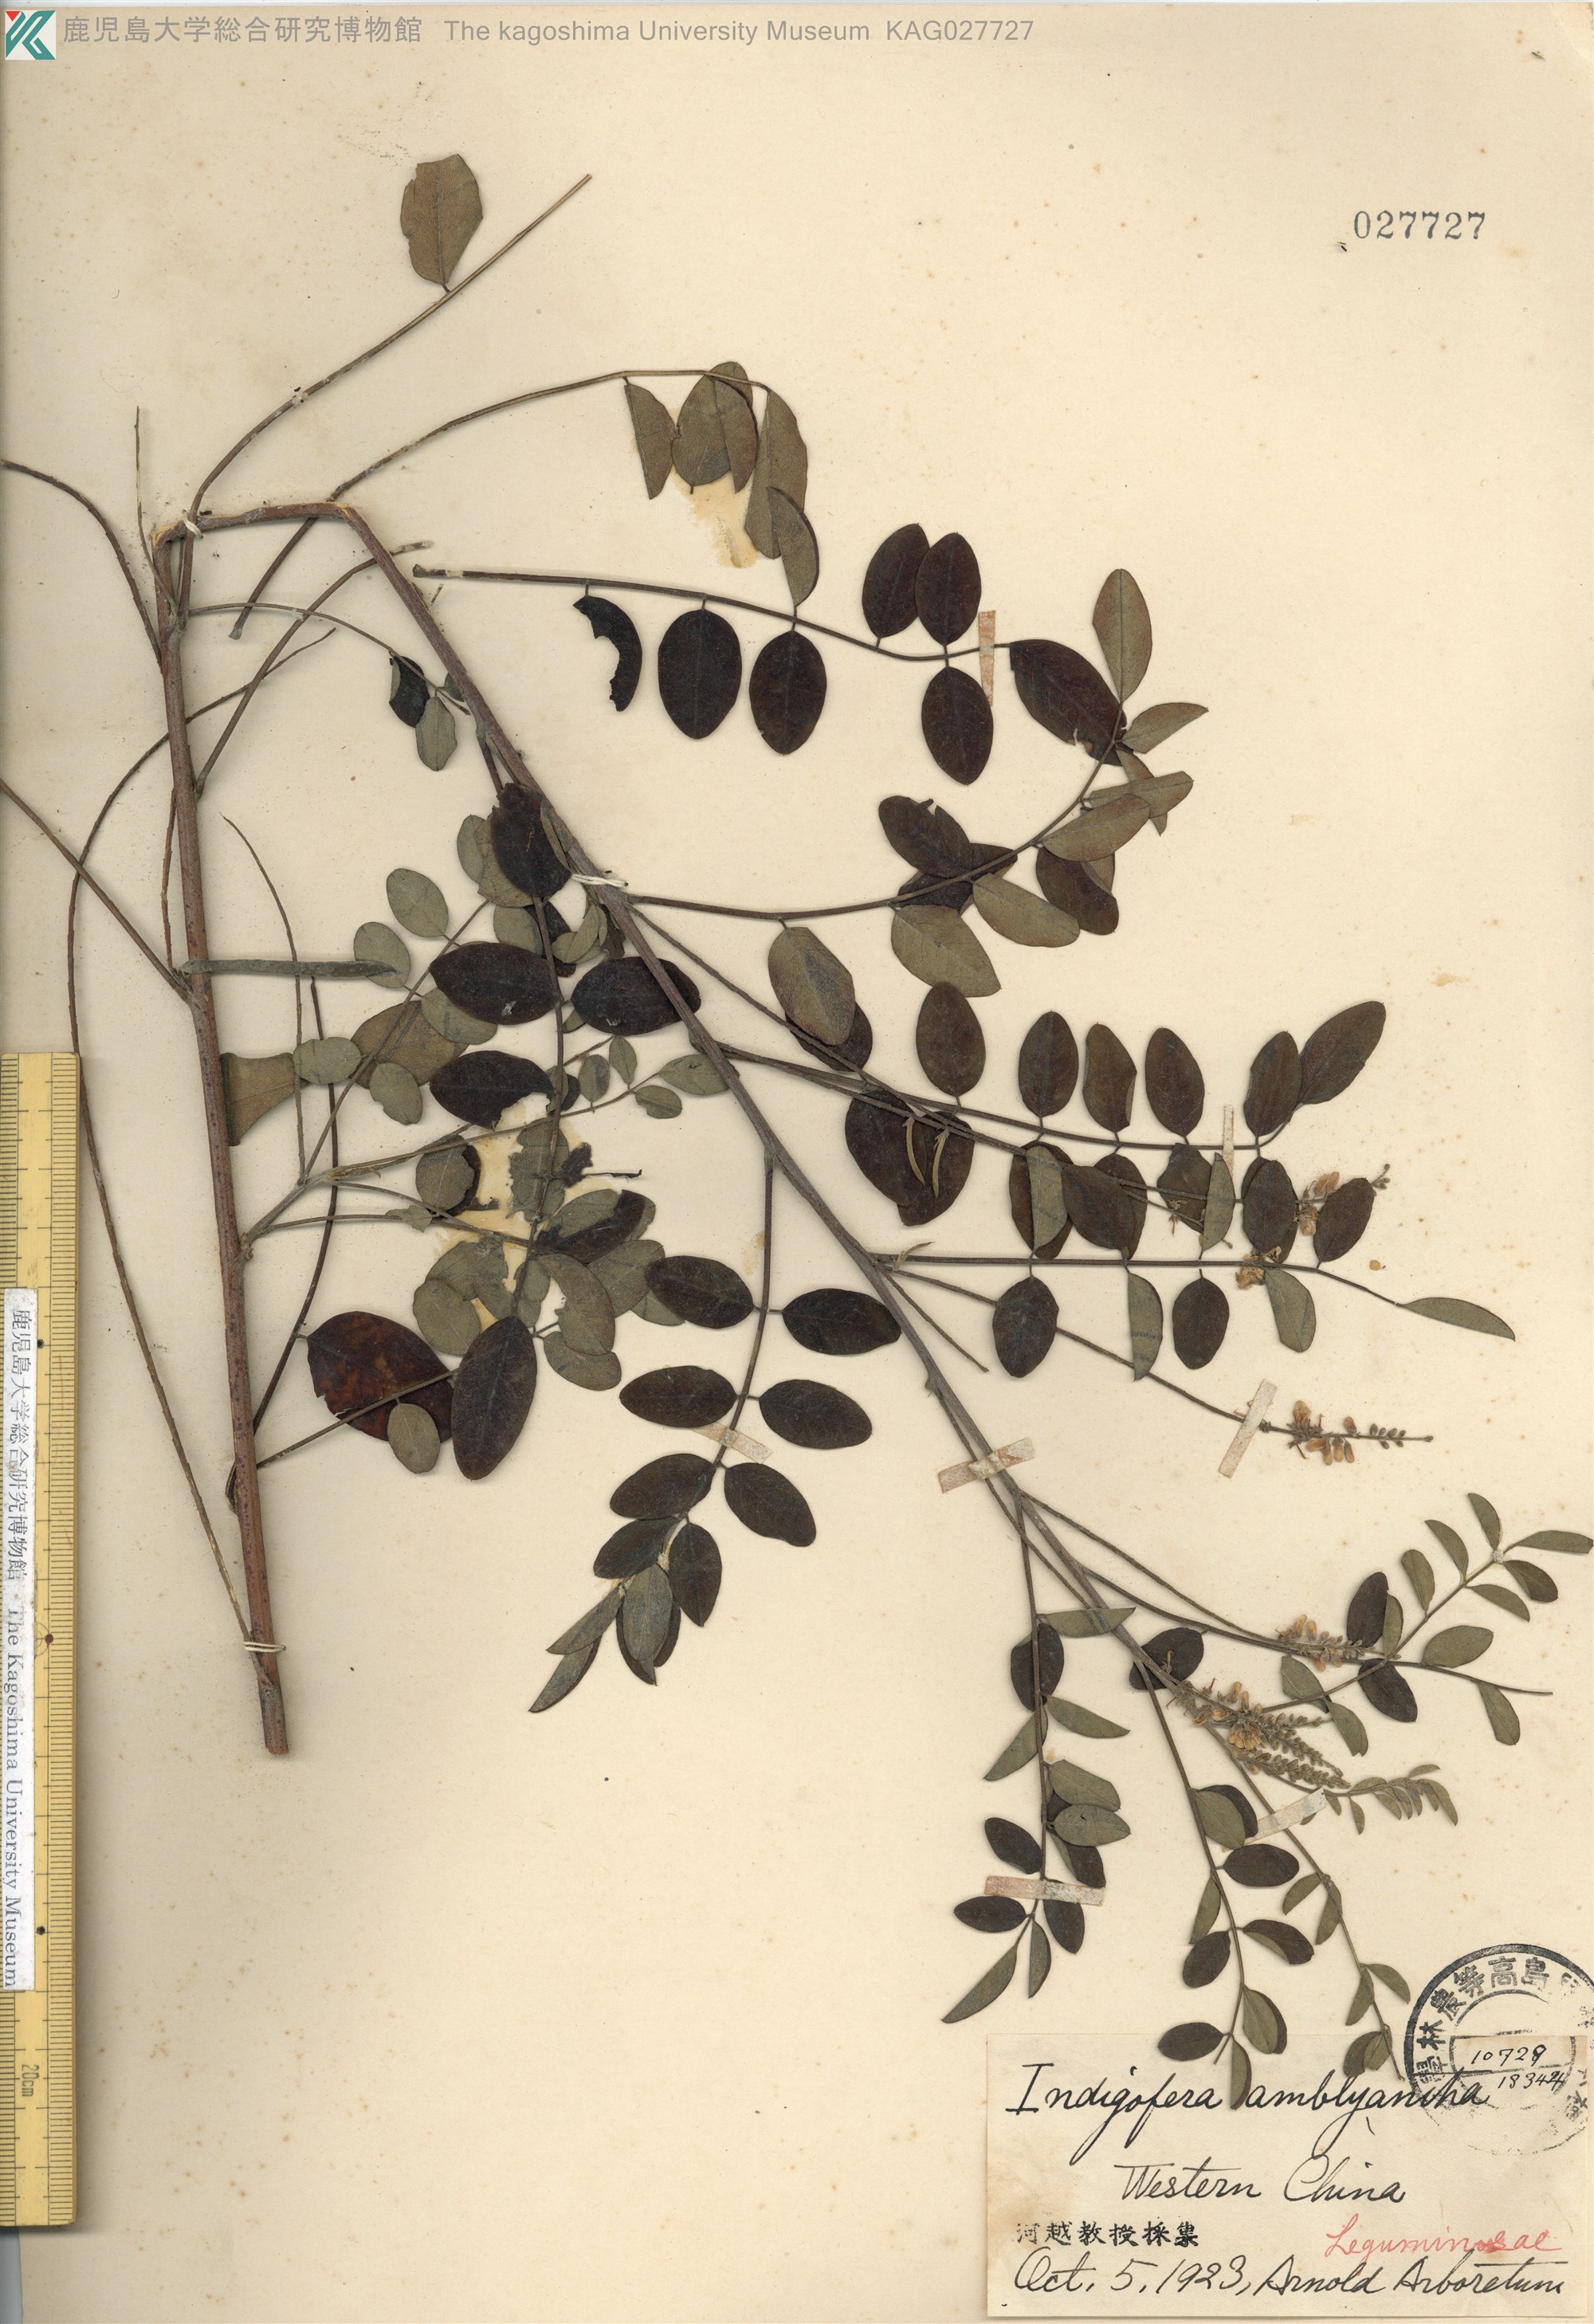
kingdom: Plantae
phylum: Tracheophyta
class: Magnoliopsida
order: Fabales
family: Fabaceae
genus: Indigofera
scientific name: Indigofera amblyantha
